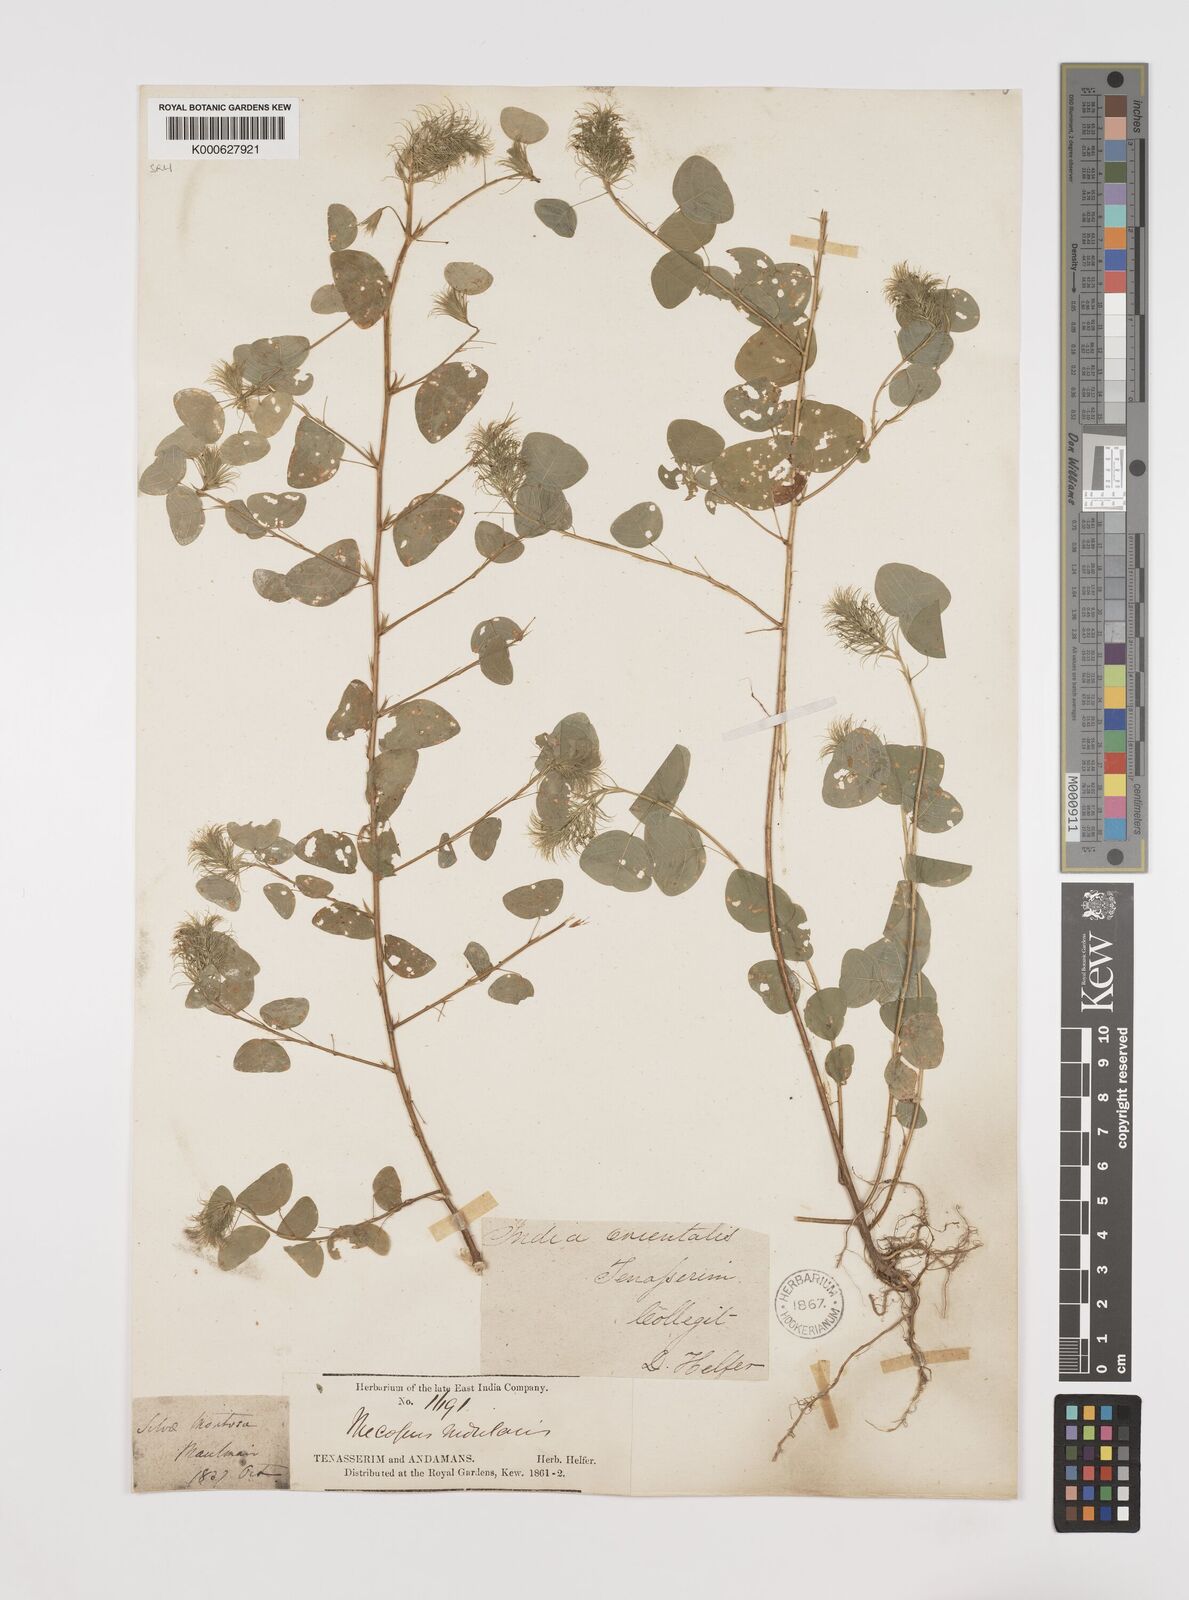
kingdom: Plantae
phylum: Tracheophyta
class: Magnoliopsida
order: Fabales
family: Fabaceae
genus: Mecopus
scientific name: Mecopus nidulans
